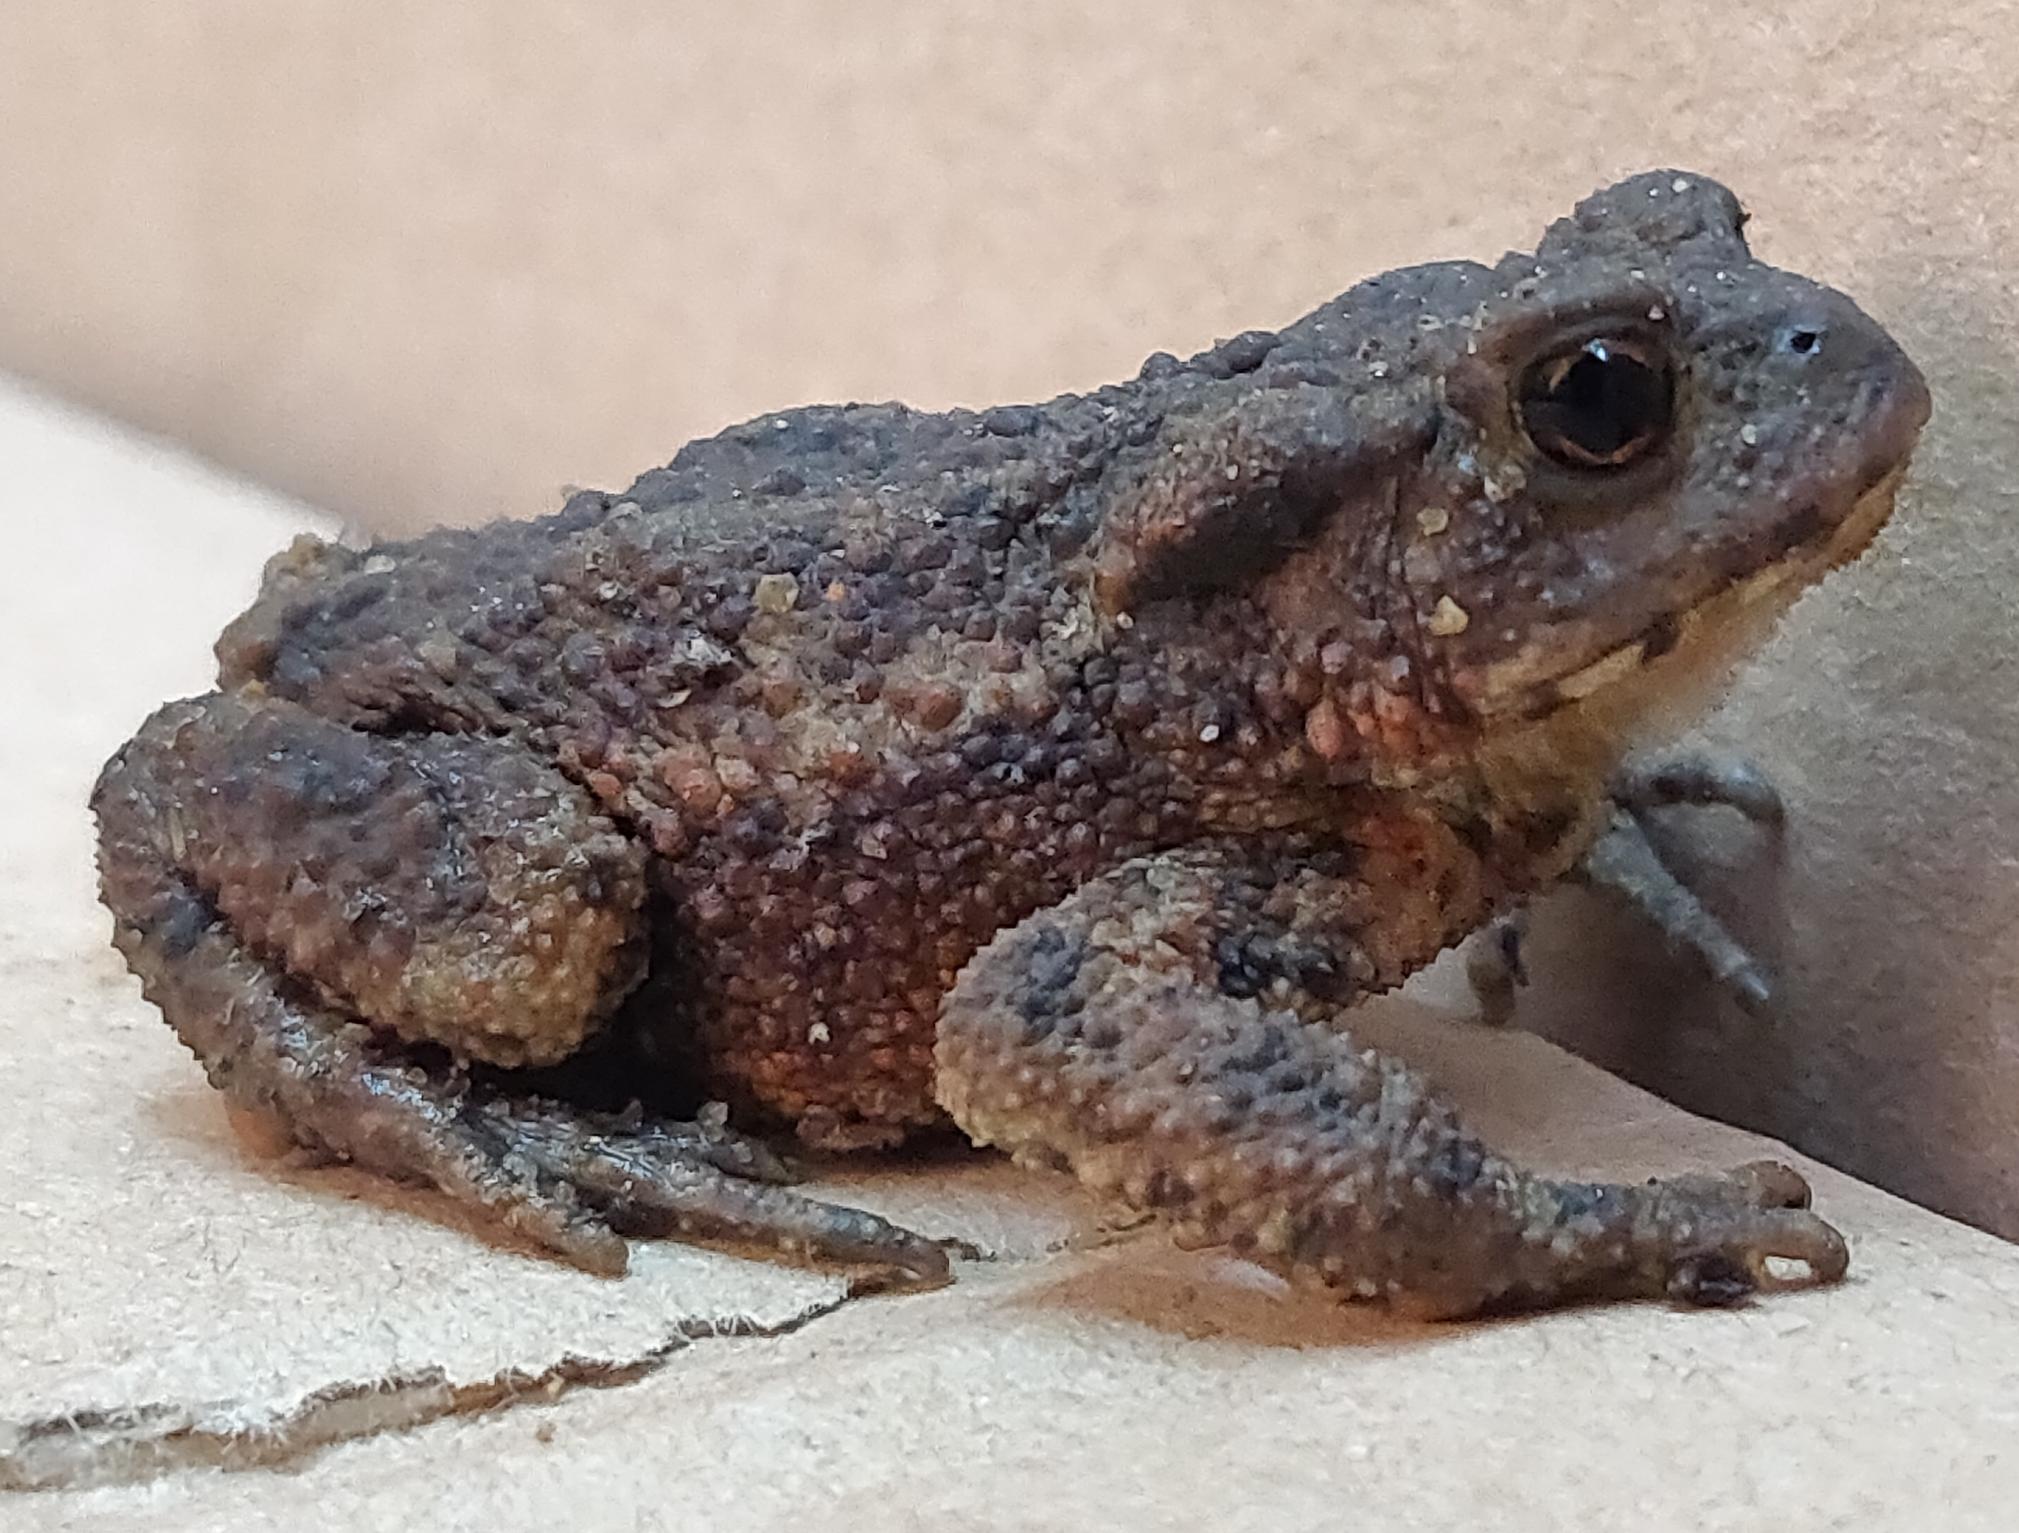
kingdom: Animalia
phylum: Chordata
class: Amphibia
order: Anura
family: Bufonidae
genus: Bufo
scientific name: Bufo bufo
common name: Skrubtudse
